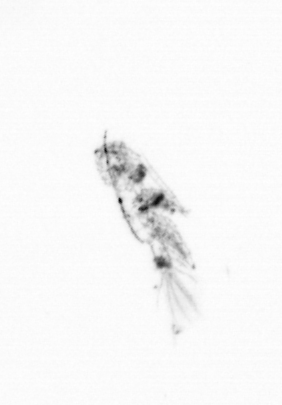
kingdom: Animalia
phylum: Arthropoda
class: Copepoda
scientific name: Copepoda
